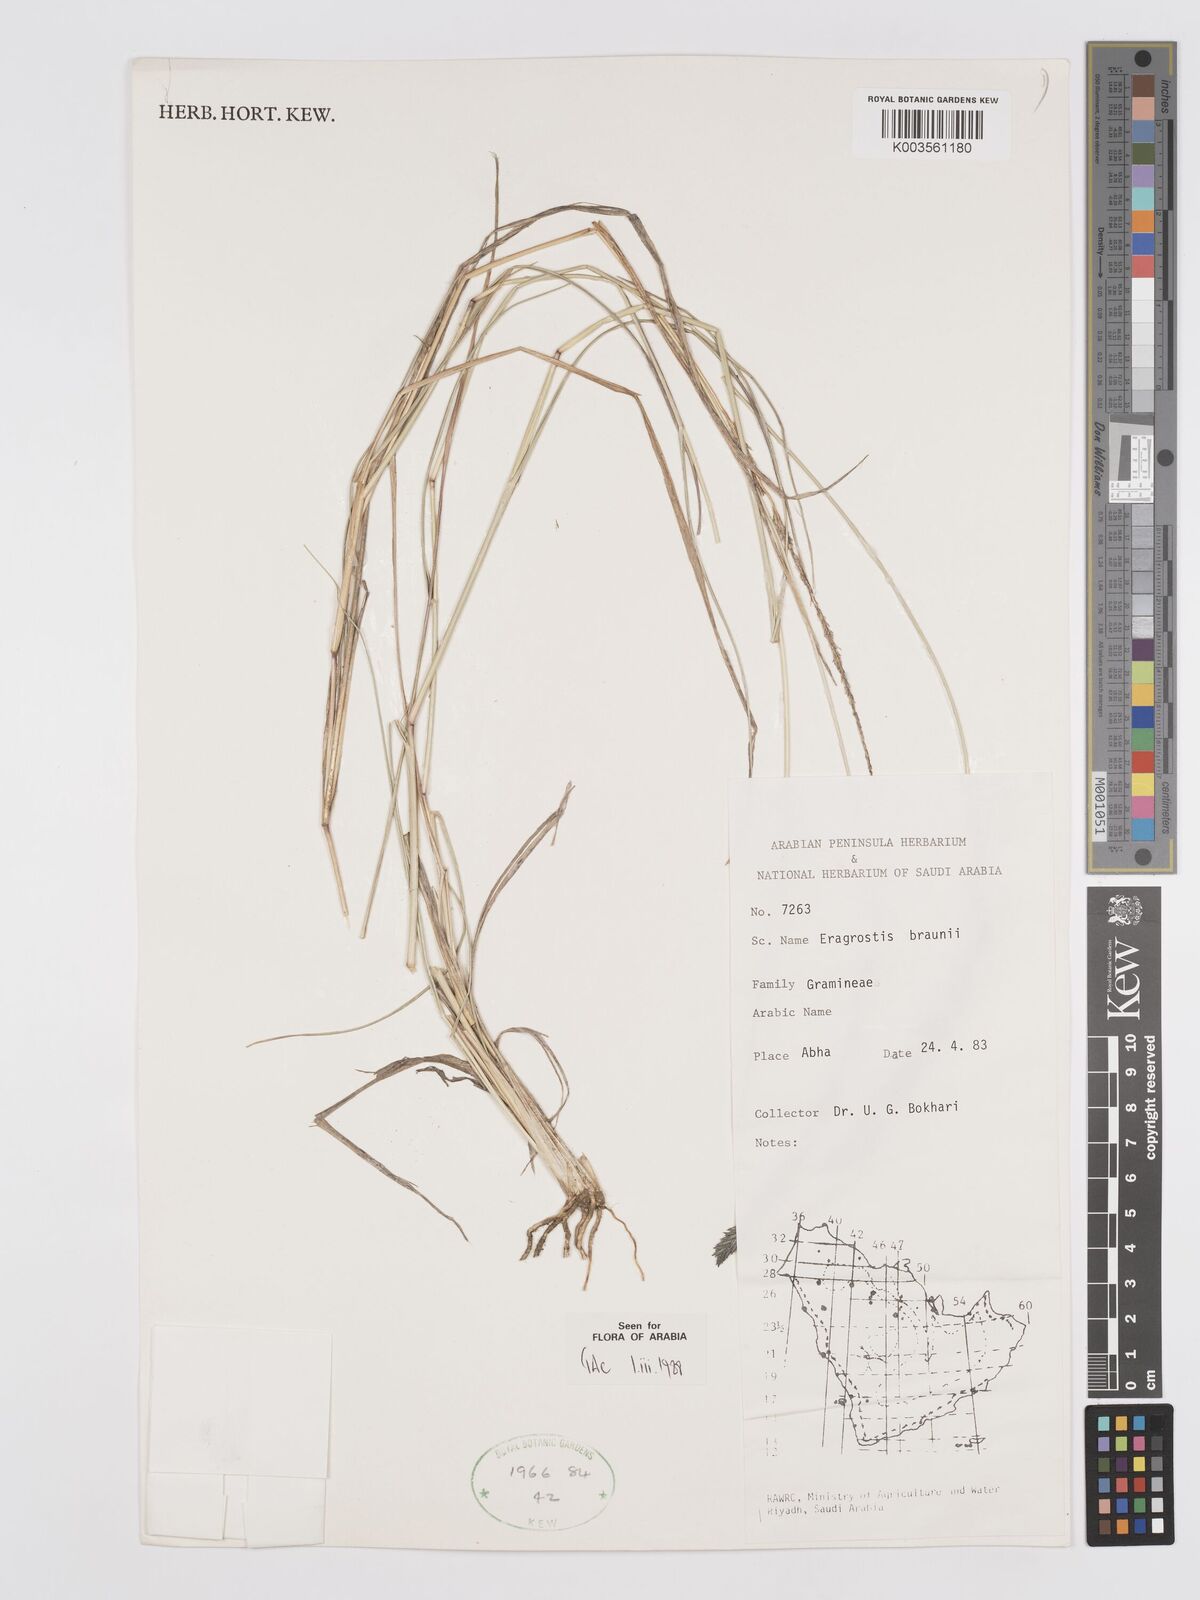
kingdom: Plantae
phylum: Tracheophyta
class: Liliopsida
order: Poales
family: Poaceae
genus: Eragrostis
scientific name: Eragrostis braunii
